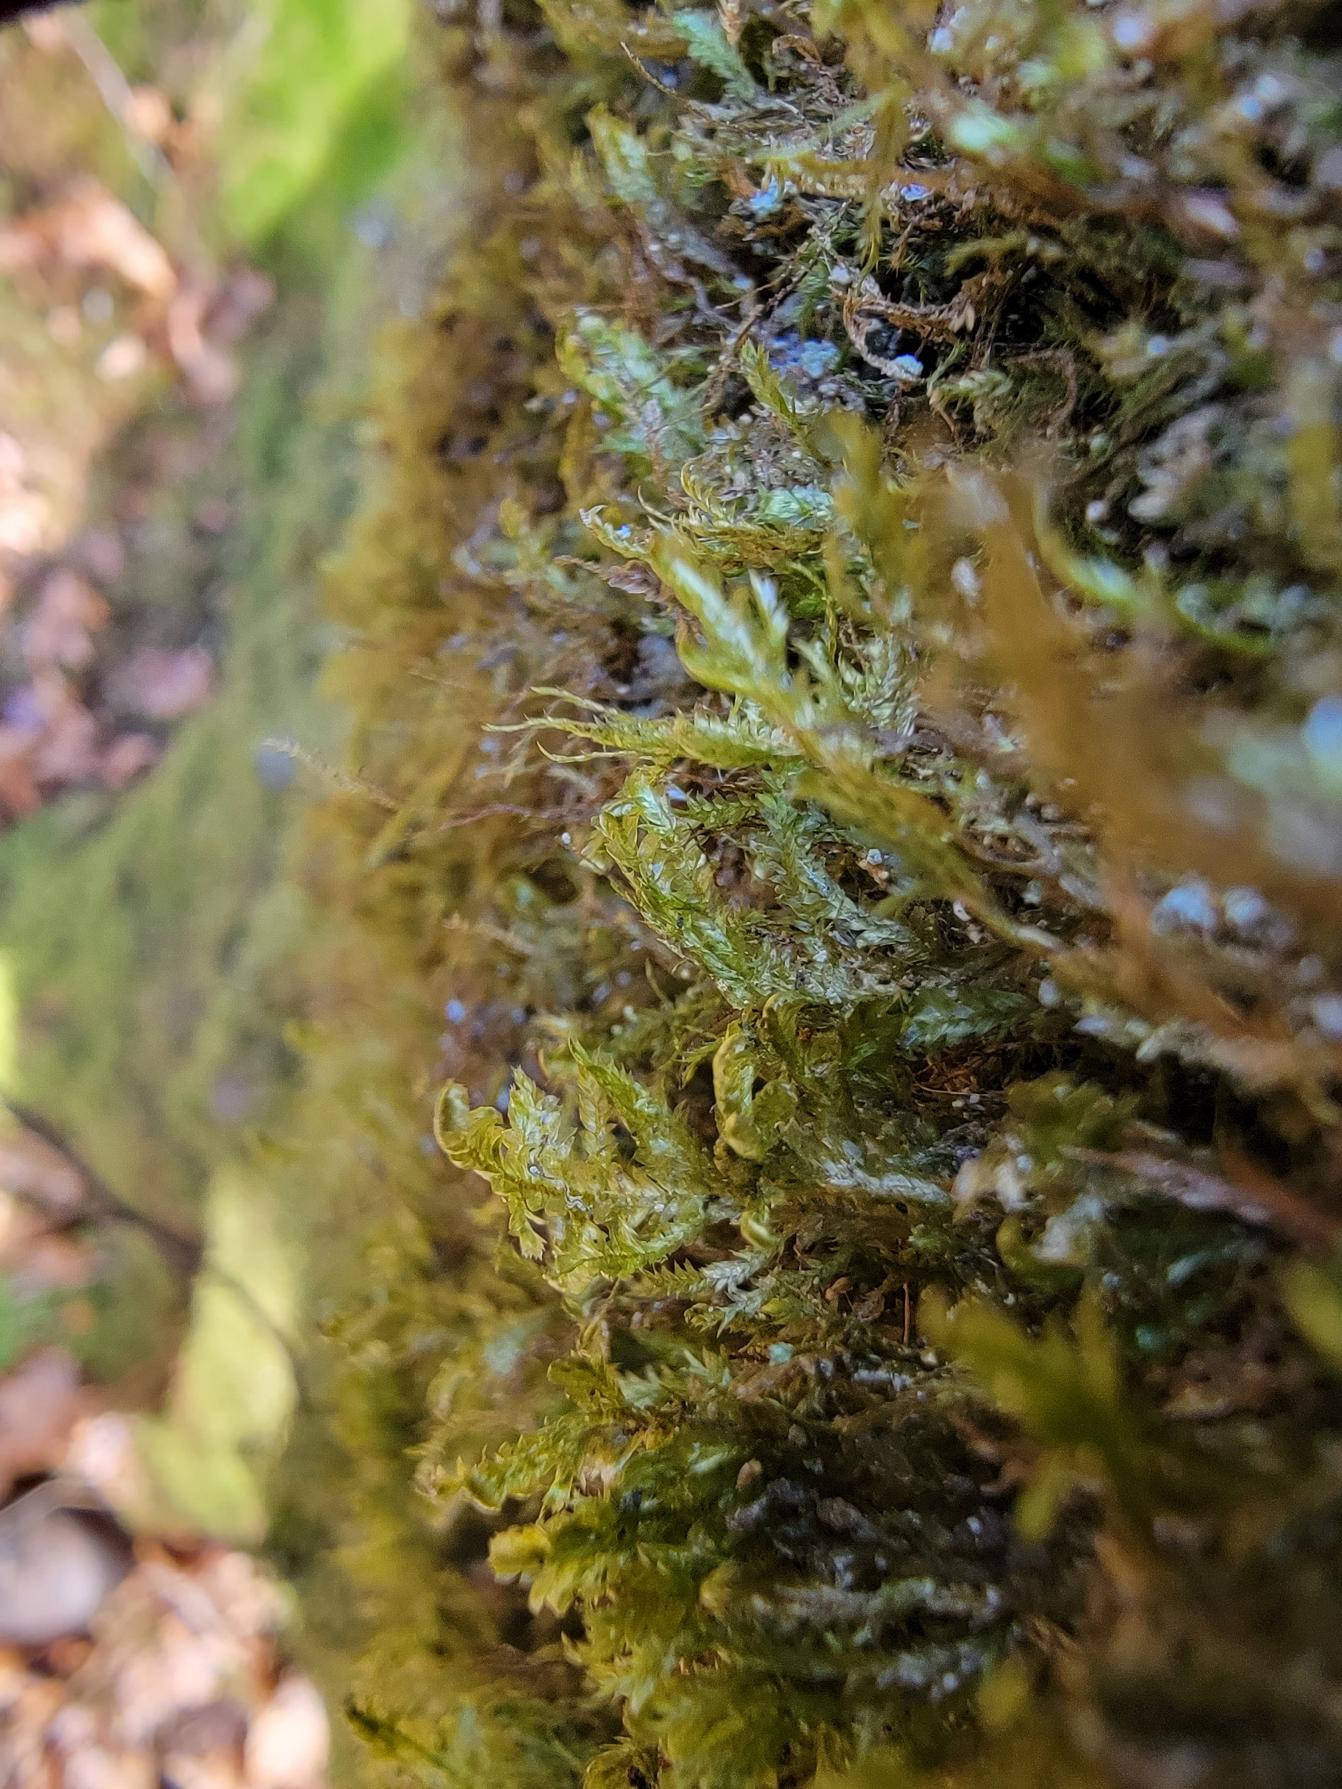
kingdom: Plantae
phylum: Bryophyta
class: Bryopsida
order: Hypnales
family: Neckeraceae
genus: Alleniella
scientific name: Alleniella complanata
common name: Almindelig fladmos
